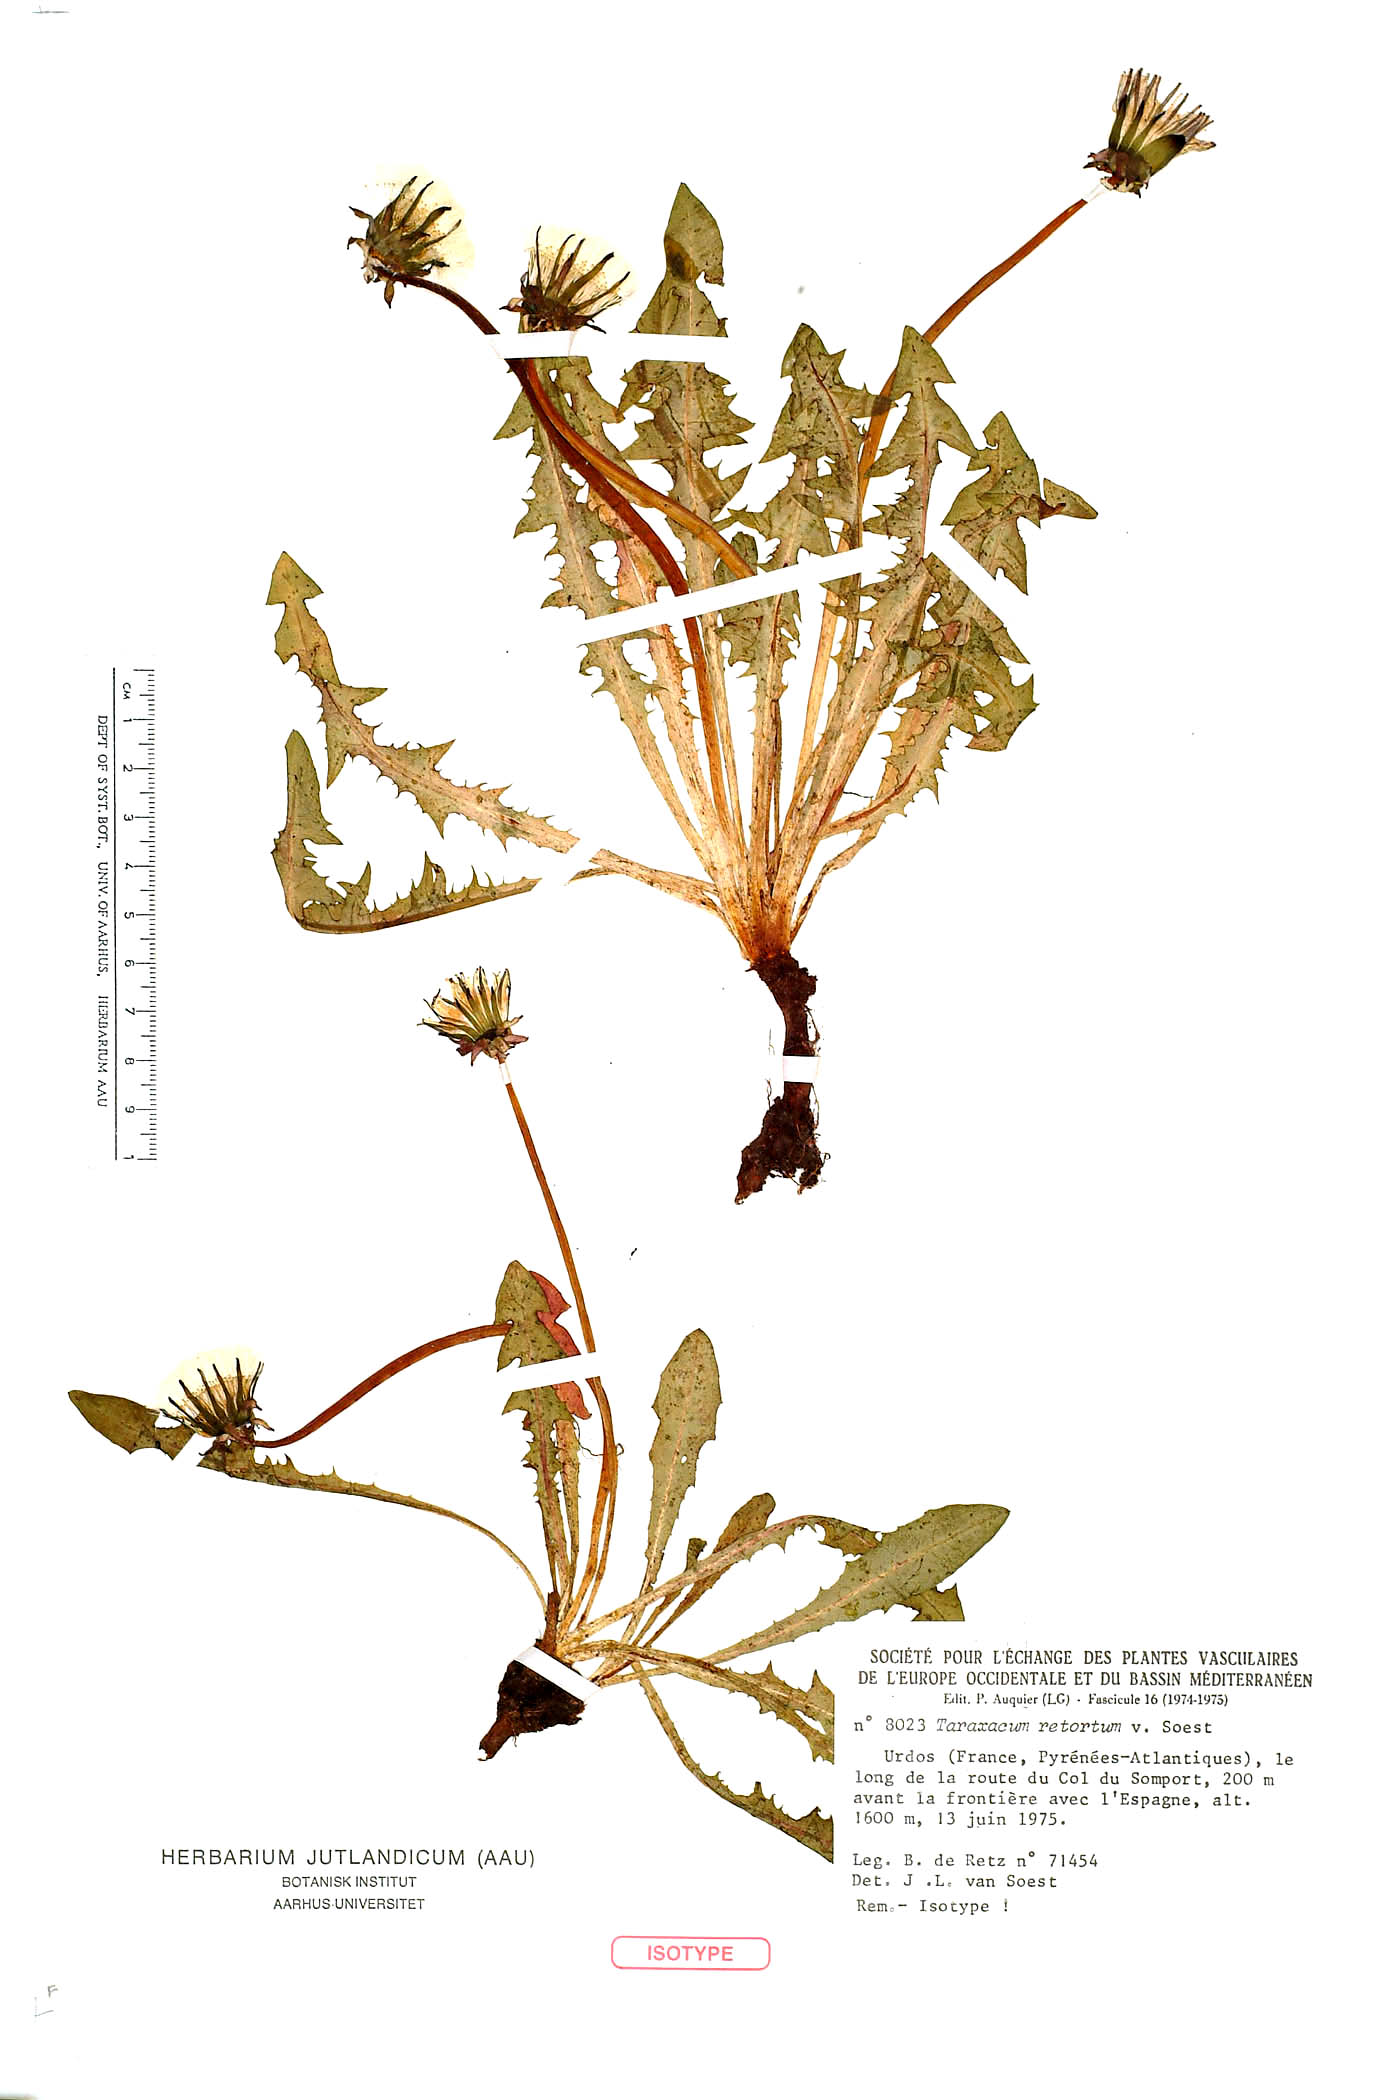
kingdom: Plantae
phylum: Tracheophyta
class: Magnoliopsida
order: Asterales
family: Asteraceae
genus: Taraxacum
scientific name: Taraxacum retortum
